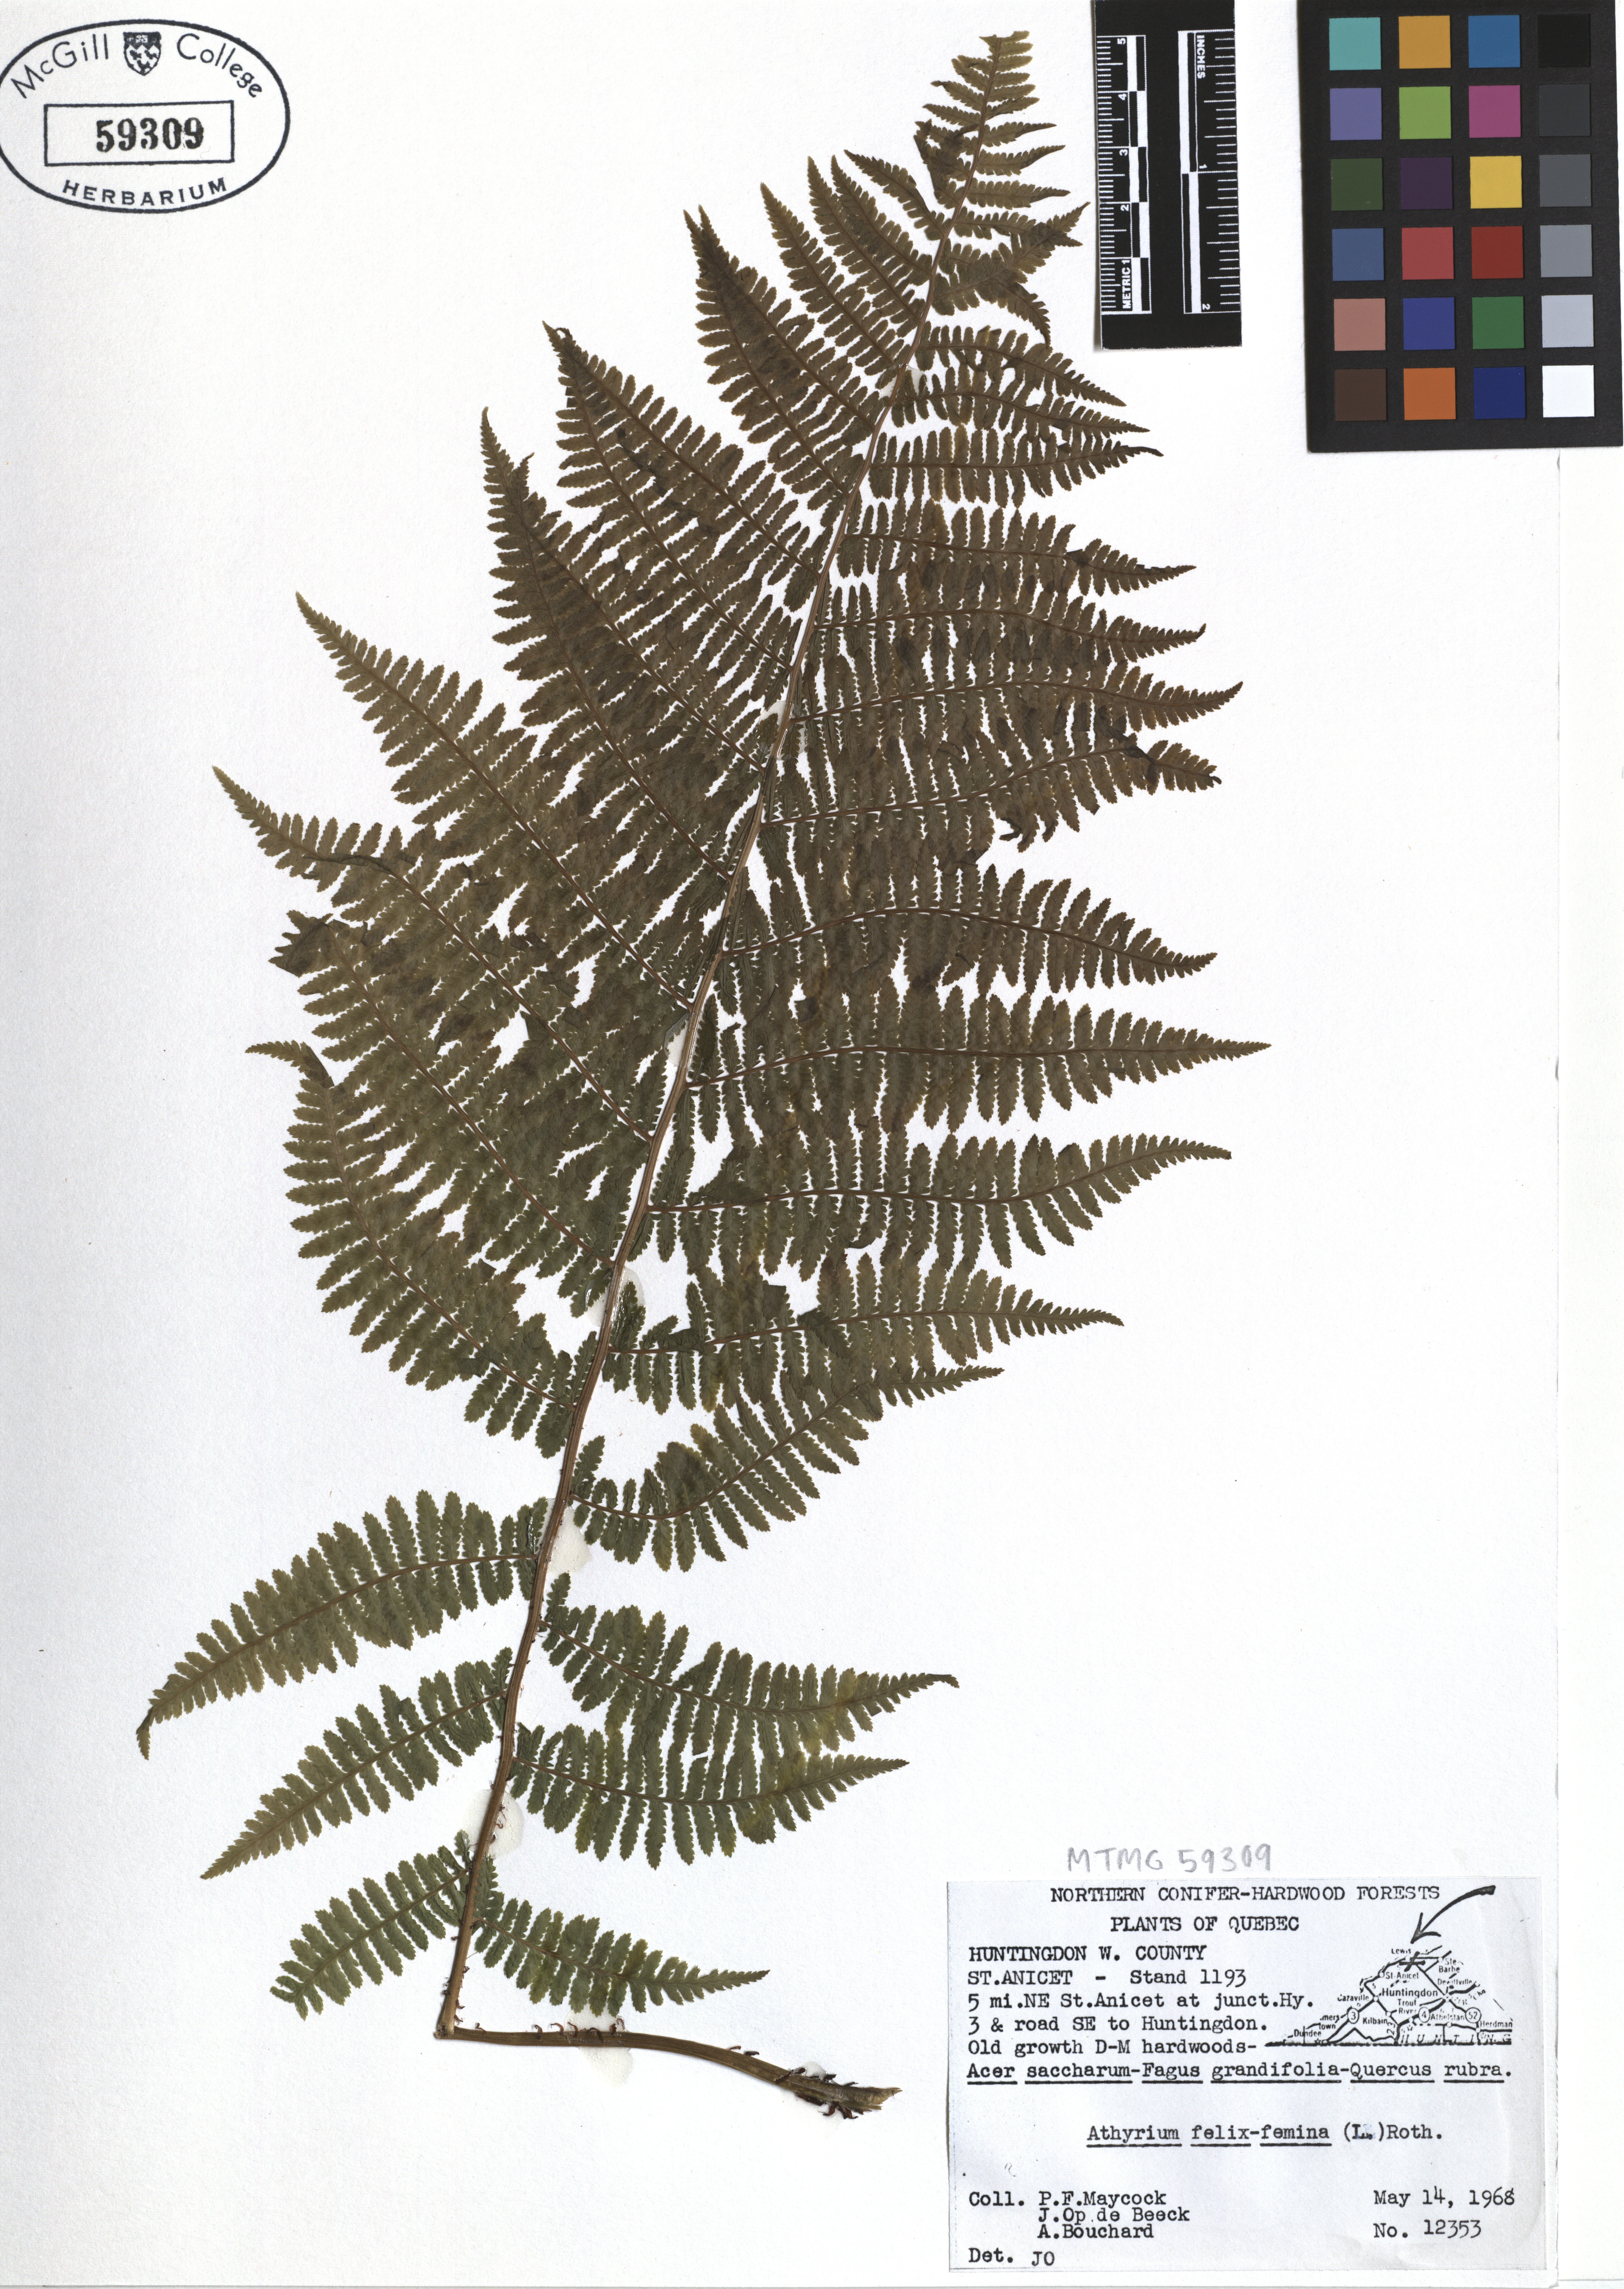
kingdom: Plantae
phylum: Tracheophyta
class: Polypodiopsida
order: Polypodiales
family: Athyriaceae
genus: Athyrium
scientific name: Athyrium filix-femina
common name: Lady fern
